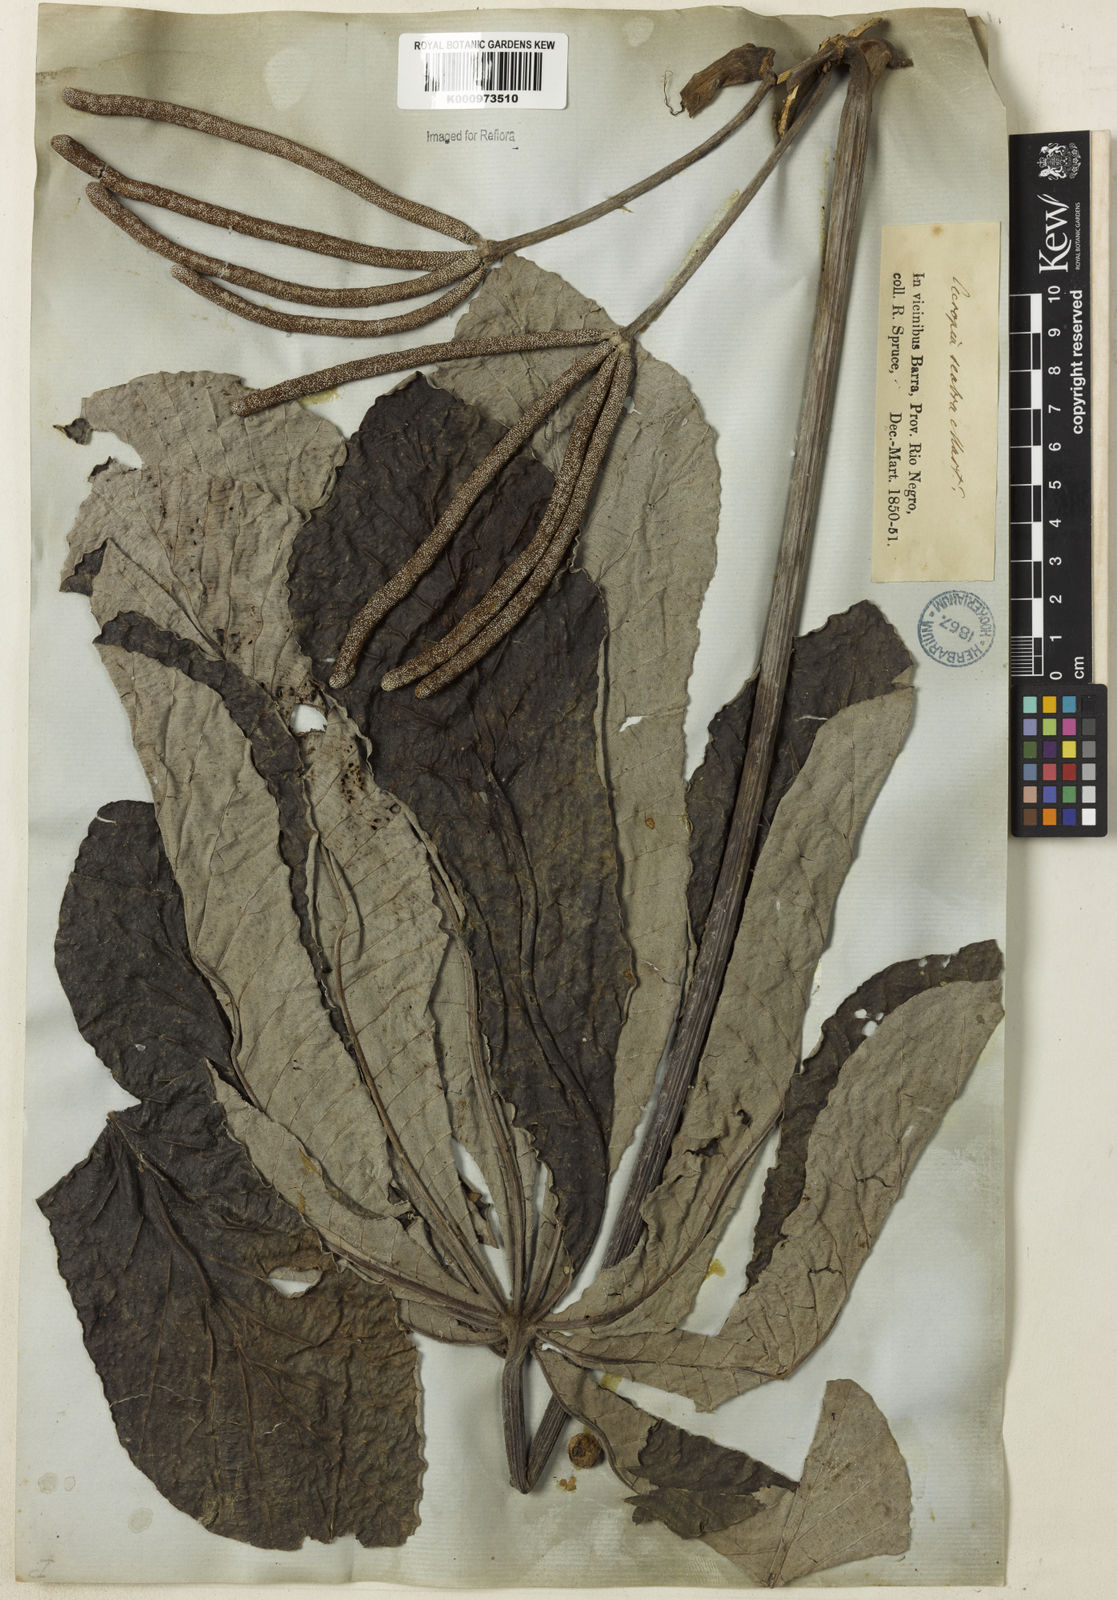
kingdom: Plantae
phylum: Tracheophyta
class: Magnoliopsida
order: Rosales
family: Urticaceae
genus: Cecropia
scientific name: Cecropia concolor
